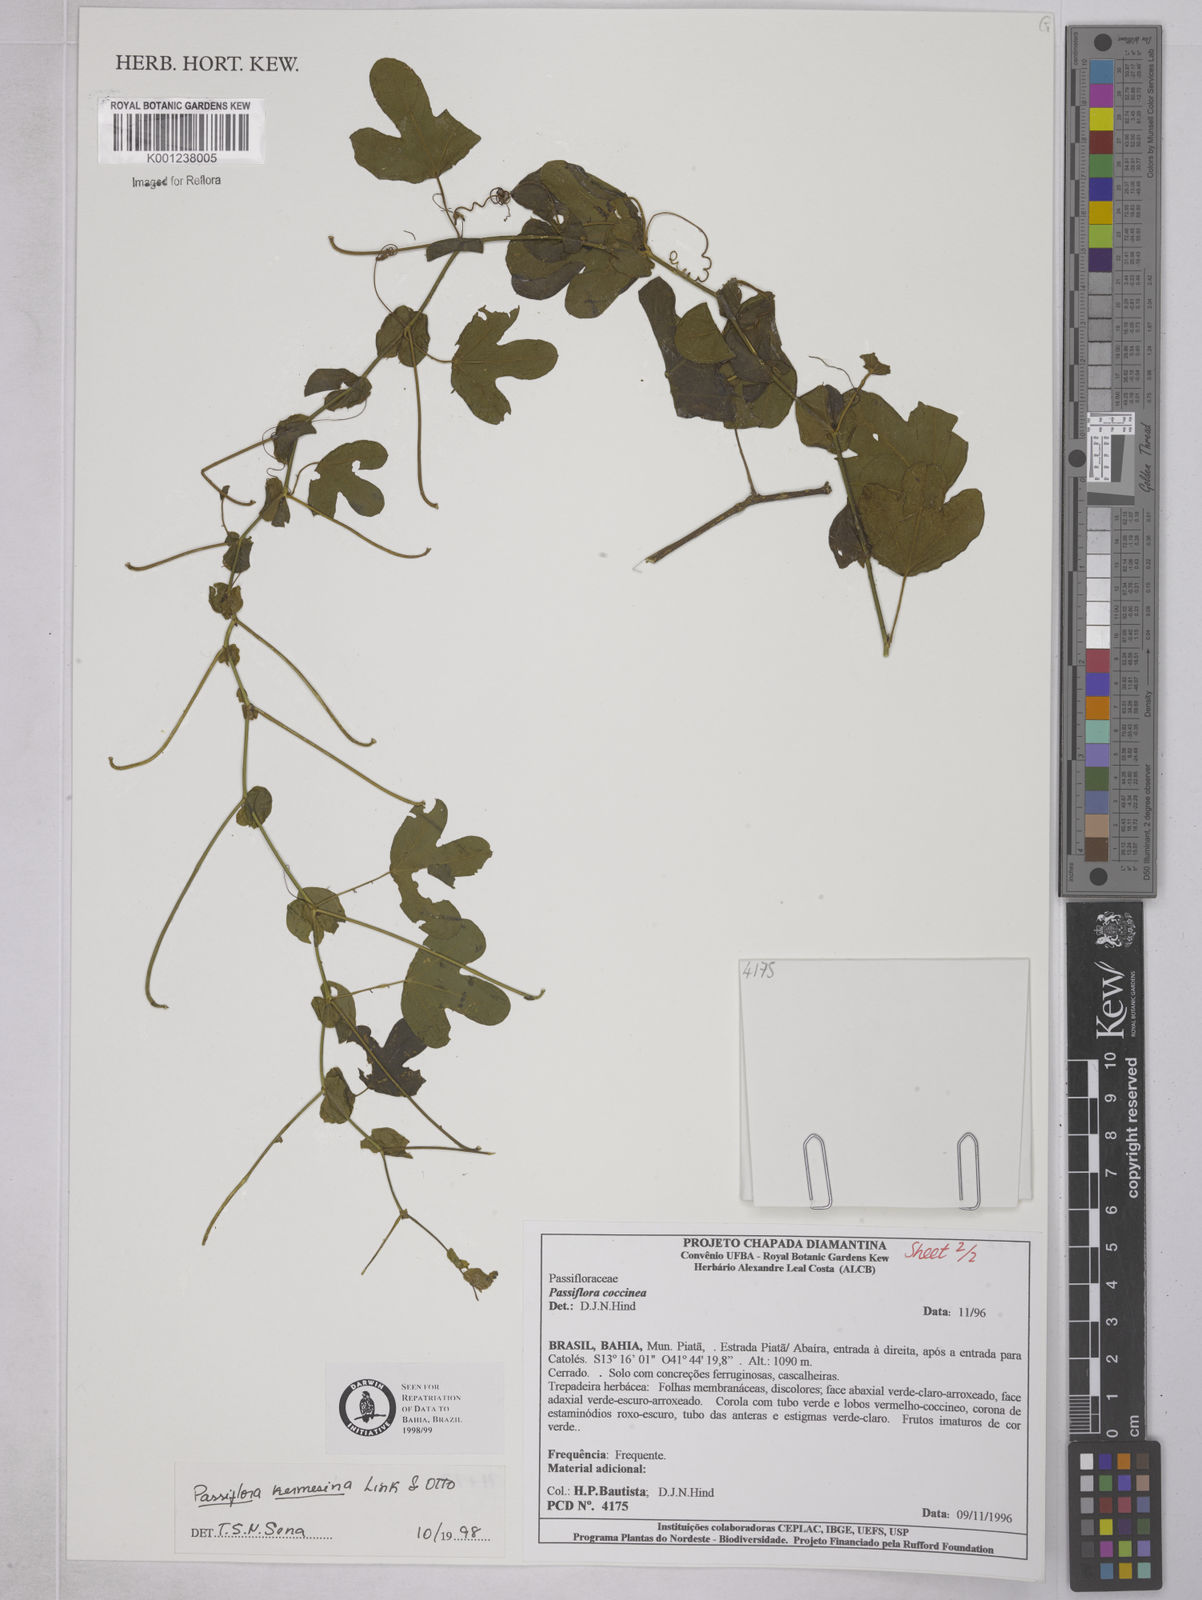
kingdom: Plantae
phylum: Tracheophyta
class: Magnoliopsida
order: Malpighiales
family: Passifloraceae
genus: Passiflora
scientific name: Passiflora kermesina
